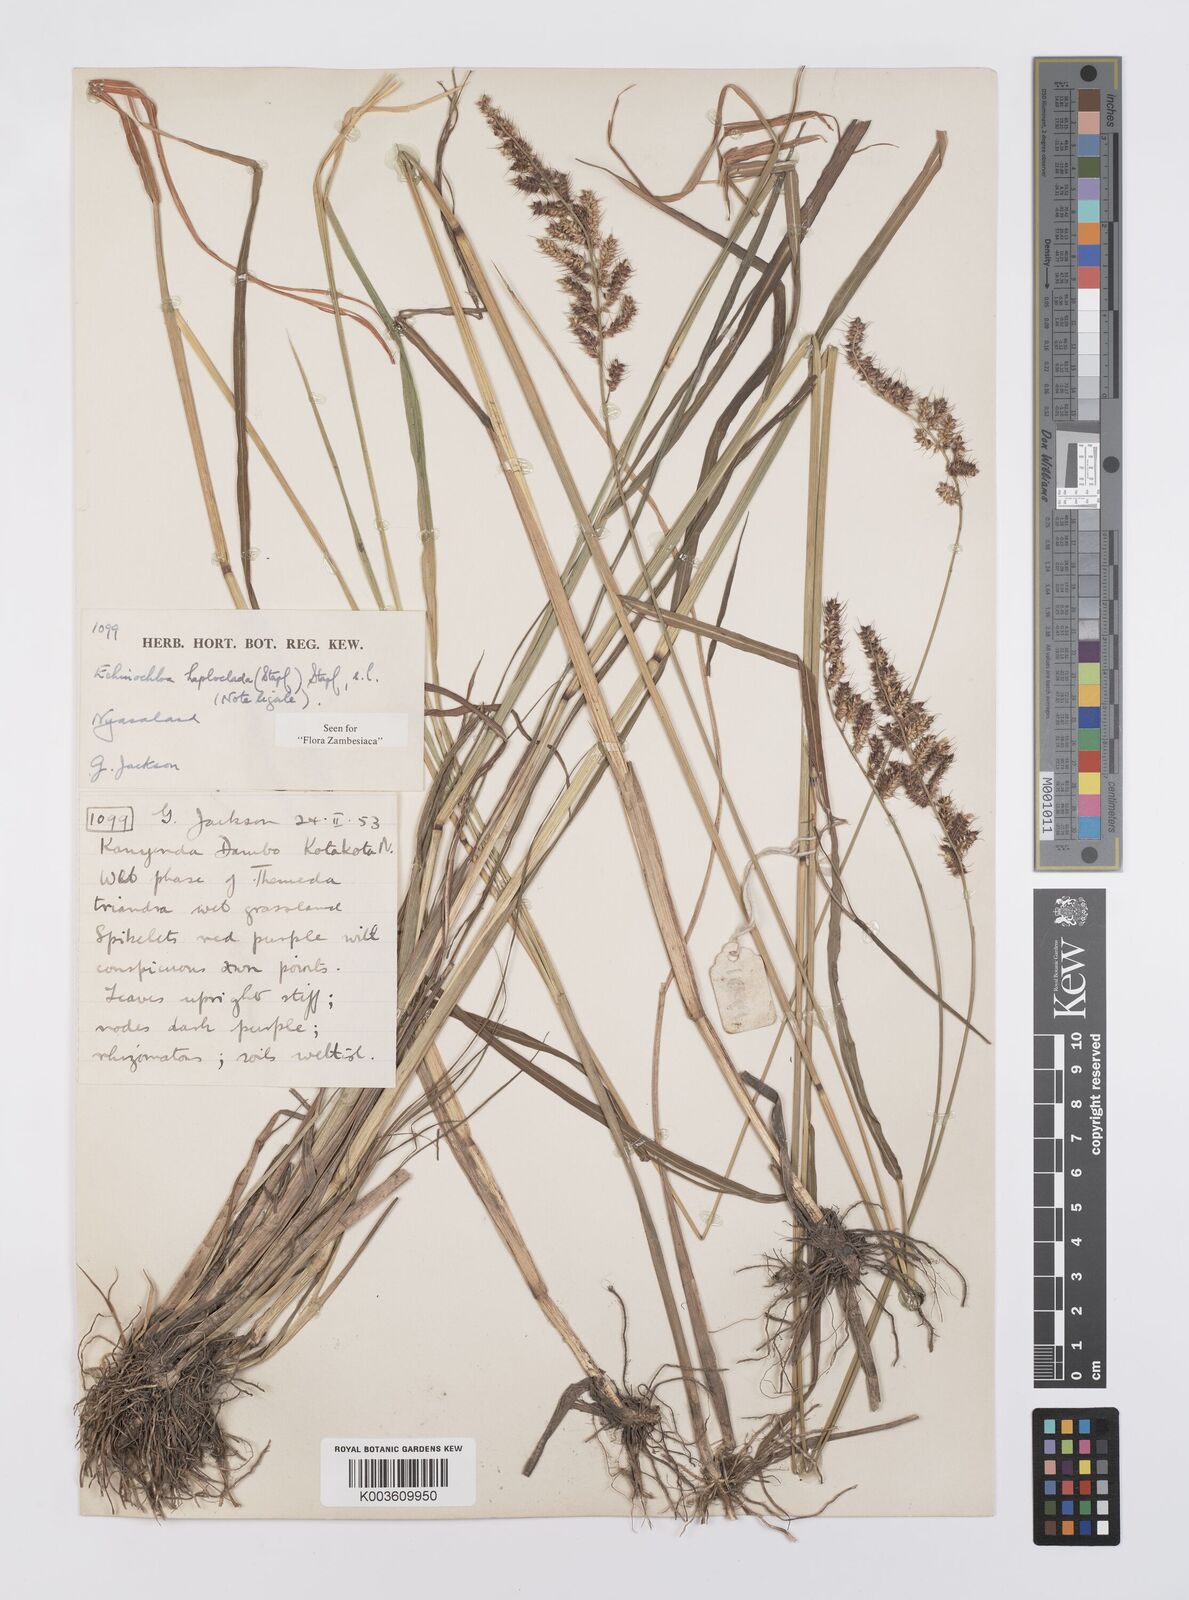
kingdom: Plantae
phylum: Tracheophyta
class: Liliopsida
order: Poales
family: Poaceae
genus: Echinochloa
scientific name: Echinochloa haploclada
